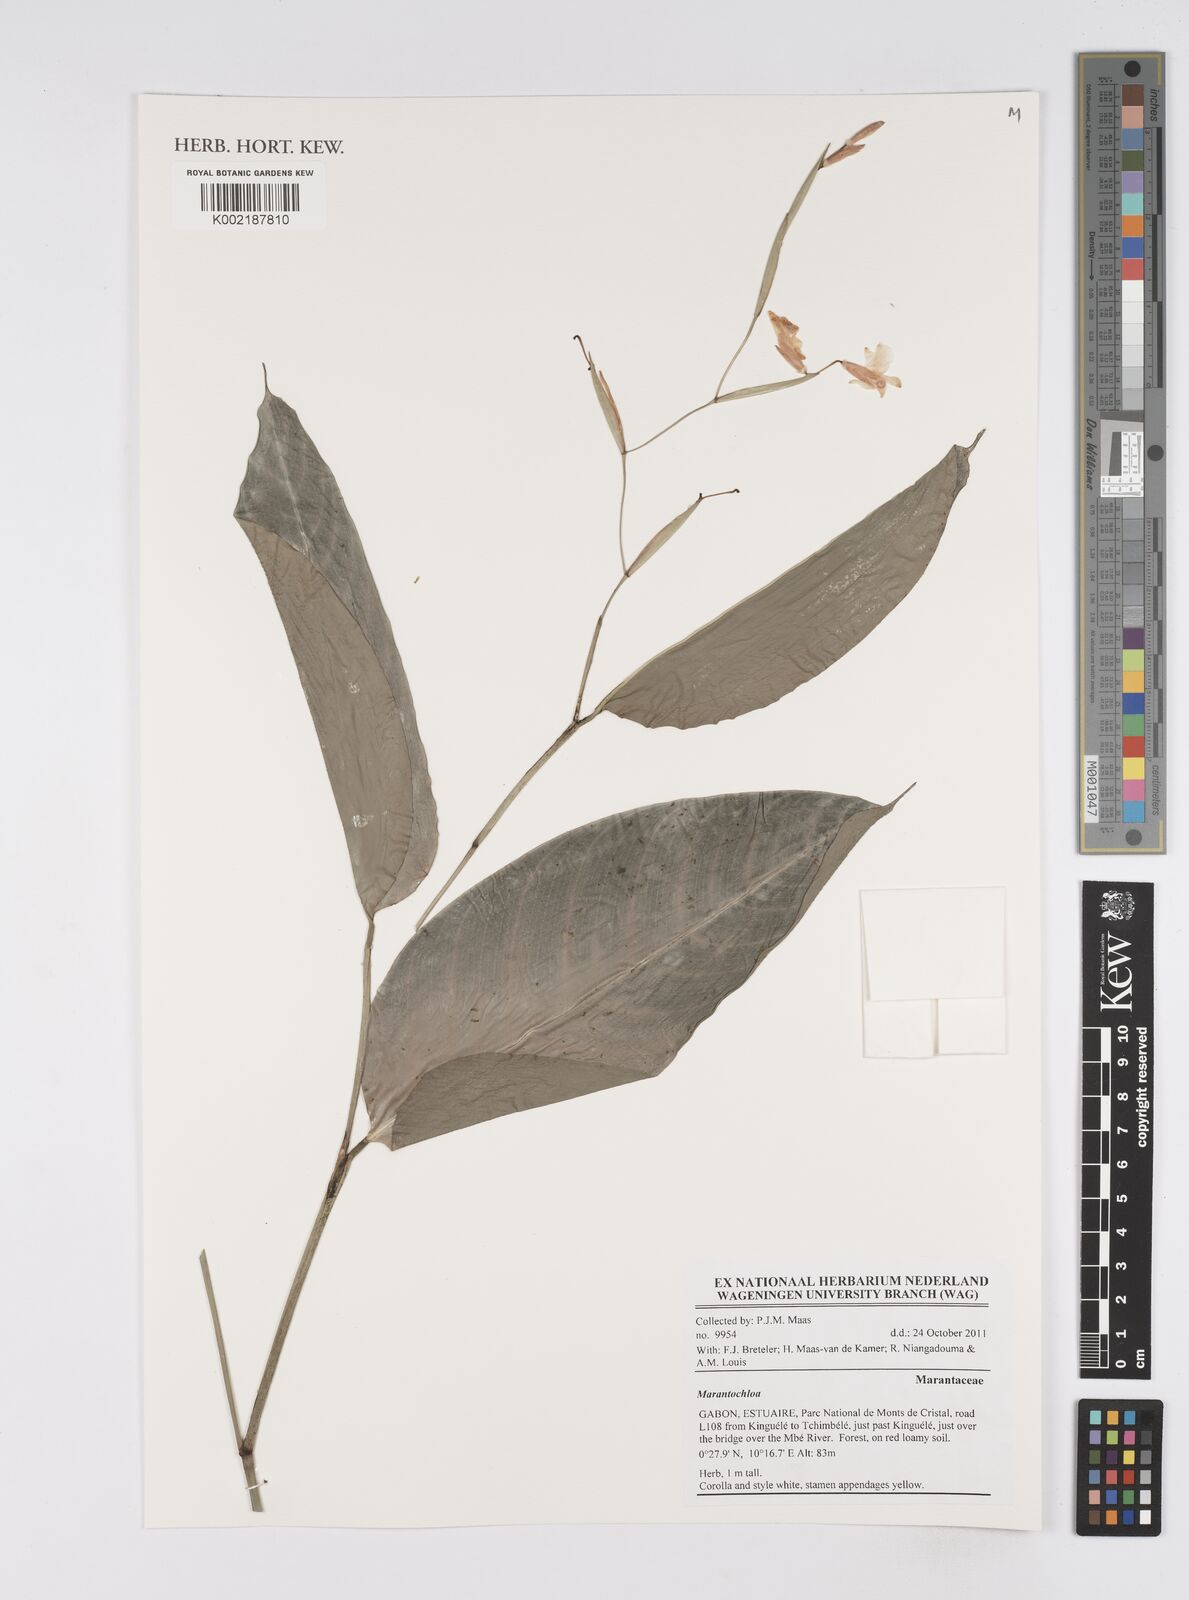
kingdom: Plantae
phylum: Tracheophyta
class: Liliopsida
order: Zingiberales
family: Marantaceae
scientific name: Marantaceae
